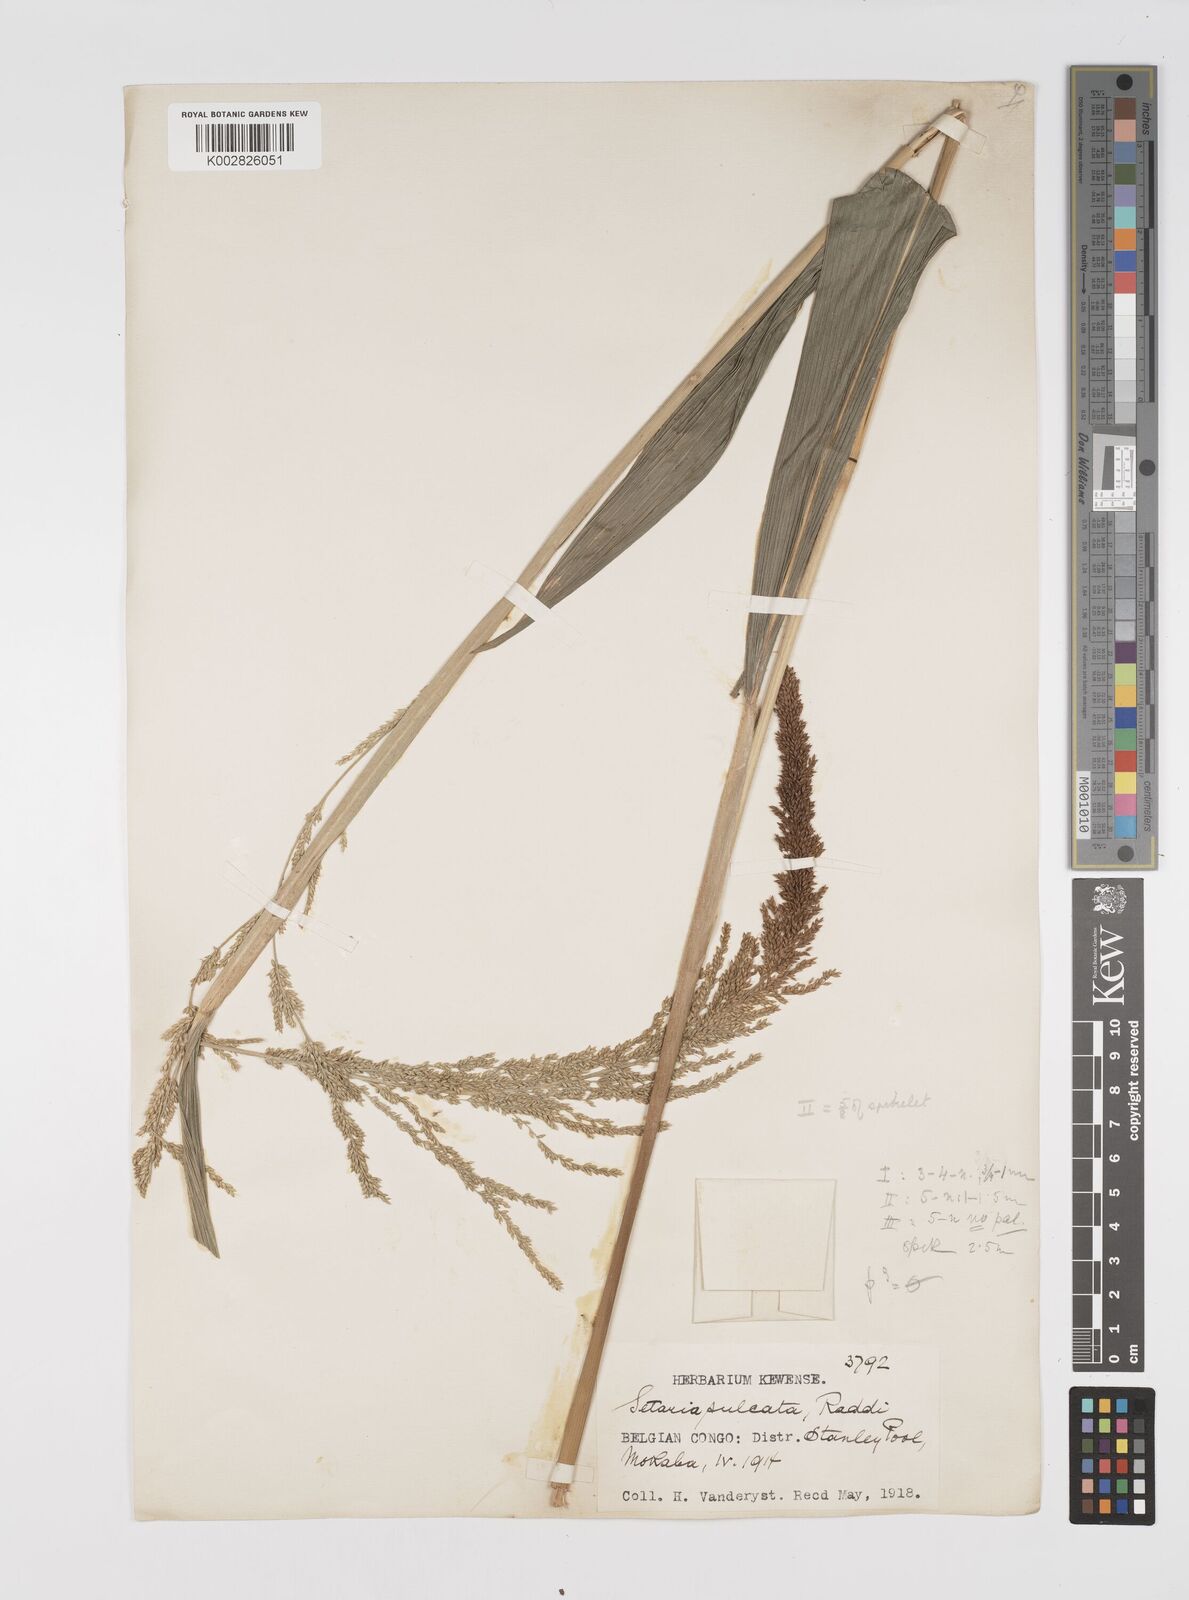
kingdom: Plantae
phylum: Tracheophyta
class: Liliopsida
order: Poales
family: Poaceae
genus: Setaria
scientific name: Setaria megaphylla
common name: Bigleaf bristlegrass
